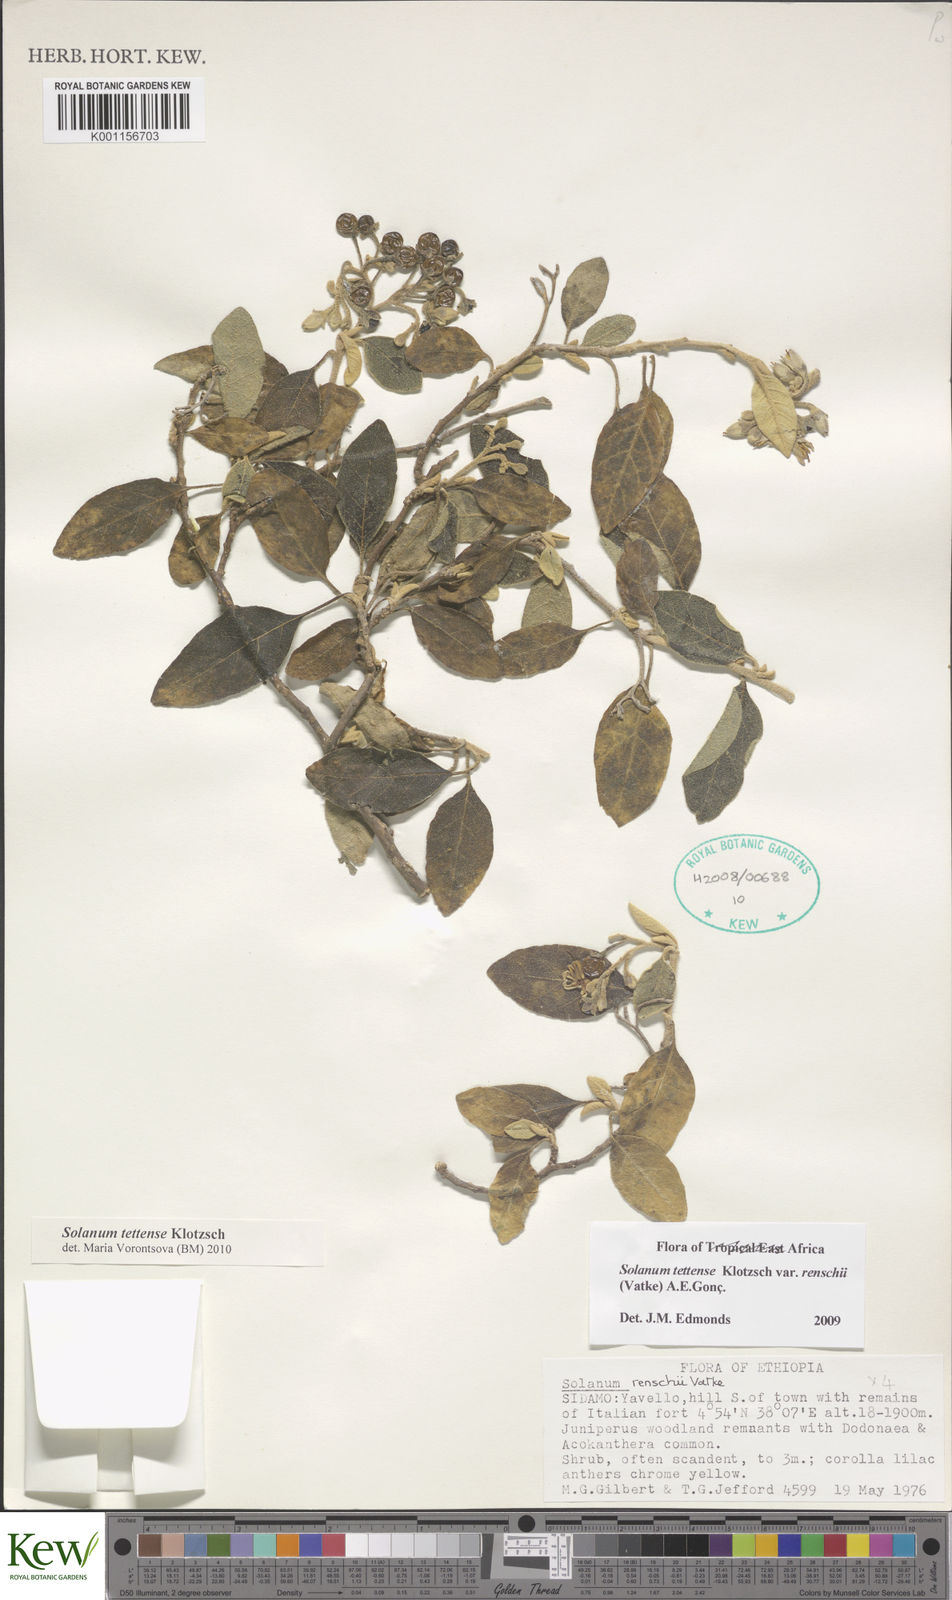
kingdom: Plantae
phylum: Tracheophyta
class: Magnoliopsida
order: Solanales
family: Solanaceae
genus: Solanum
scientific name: Solanum tettense
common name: Mozambique bitter apple
